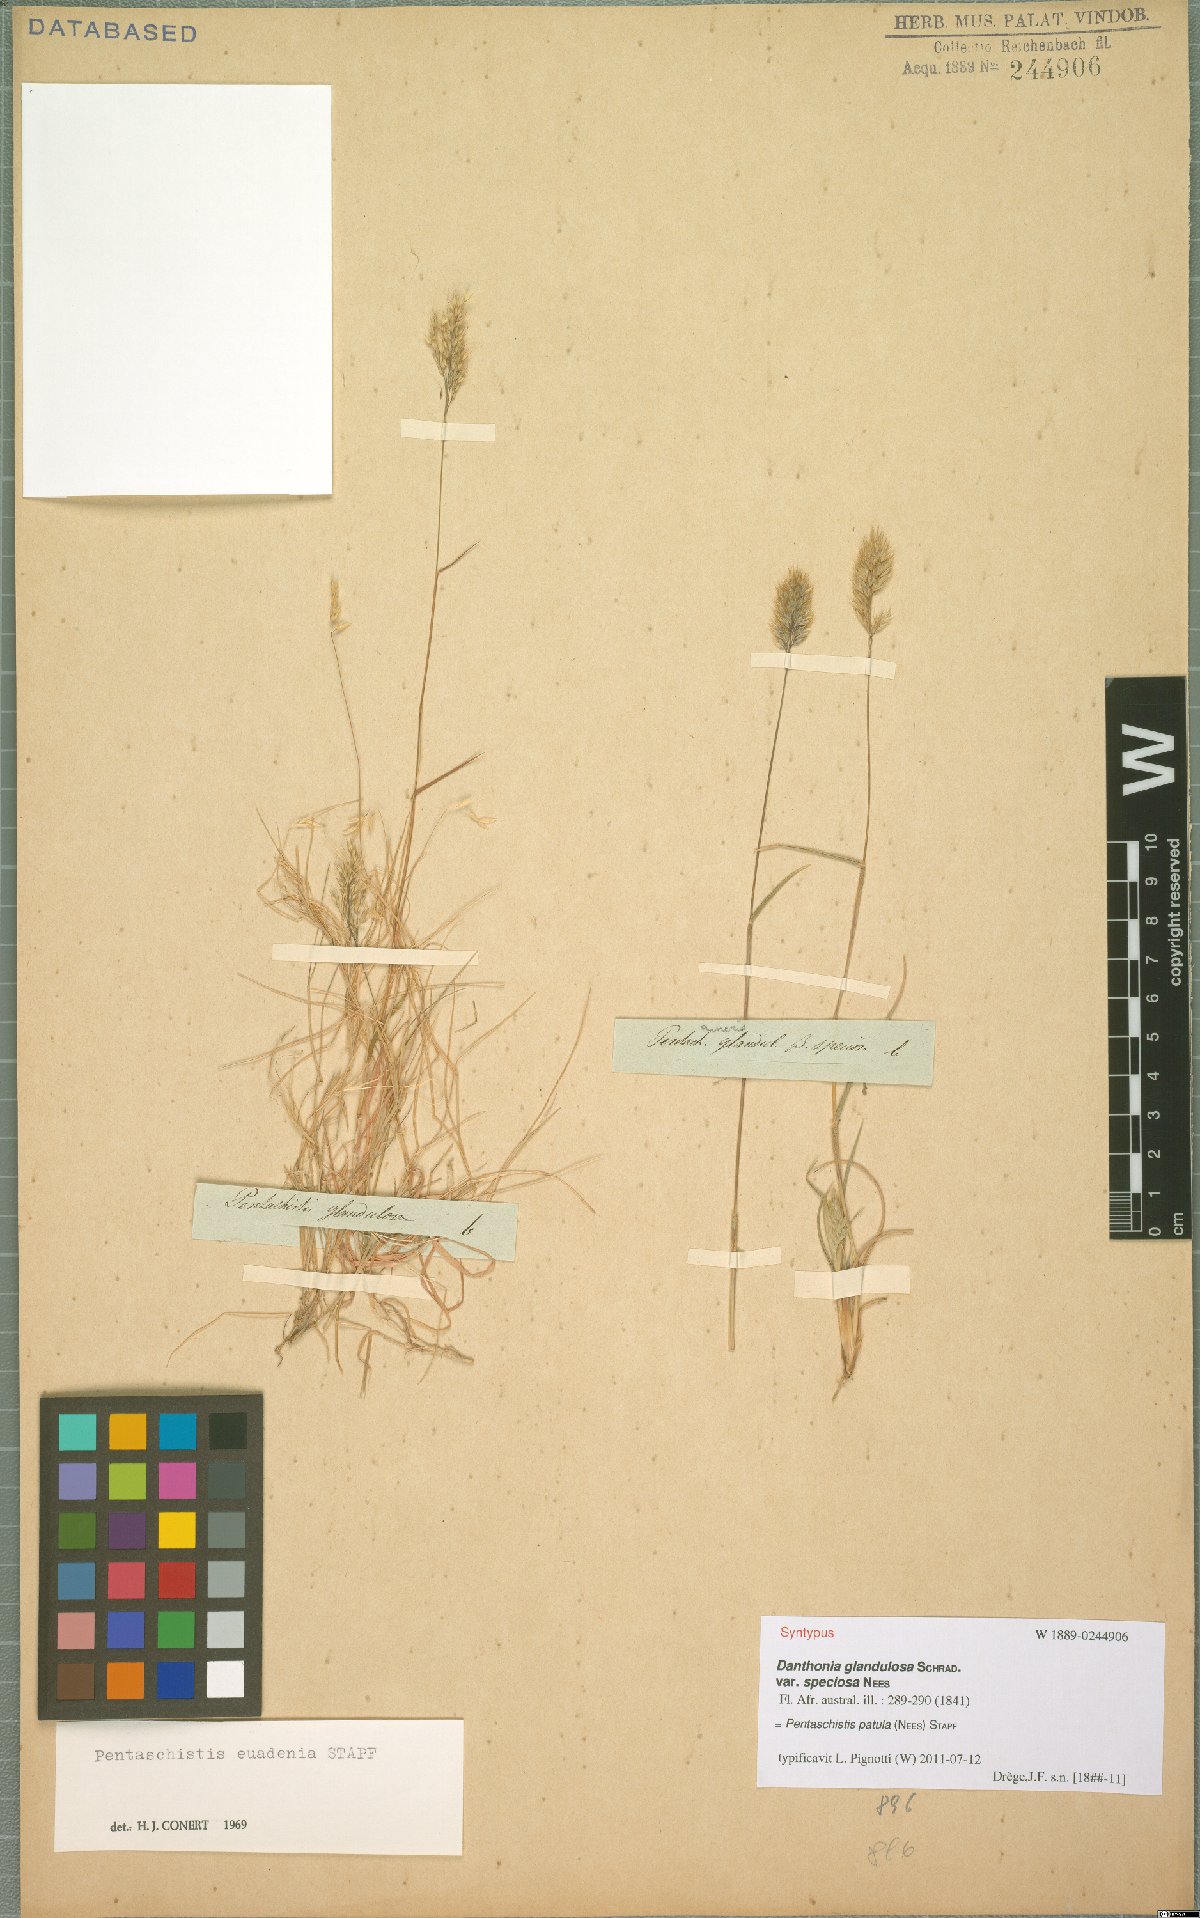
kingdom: Plantae
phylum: Tracheophyta
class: Liliopsida
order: Poales
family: Poaceae
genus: Pentameris
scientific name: Pentameris patula
